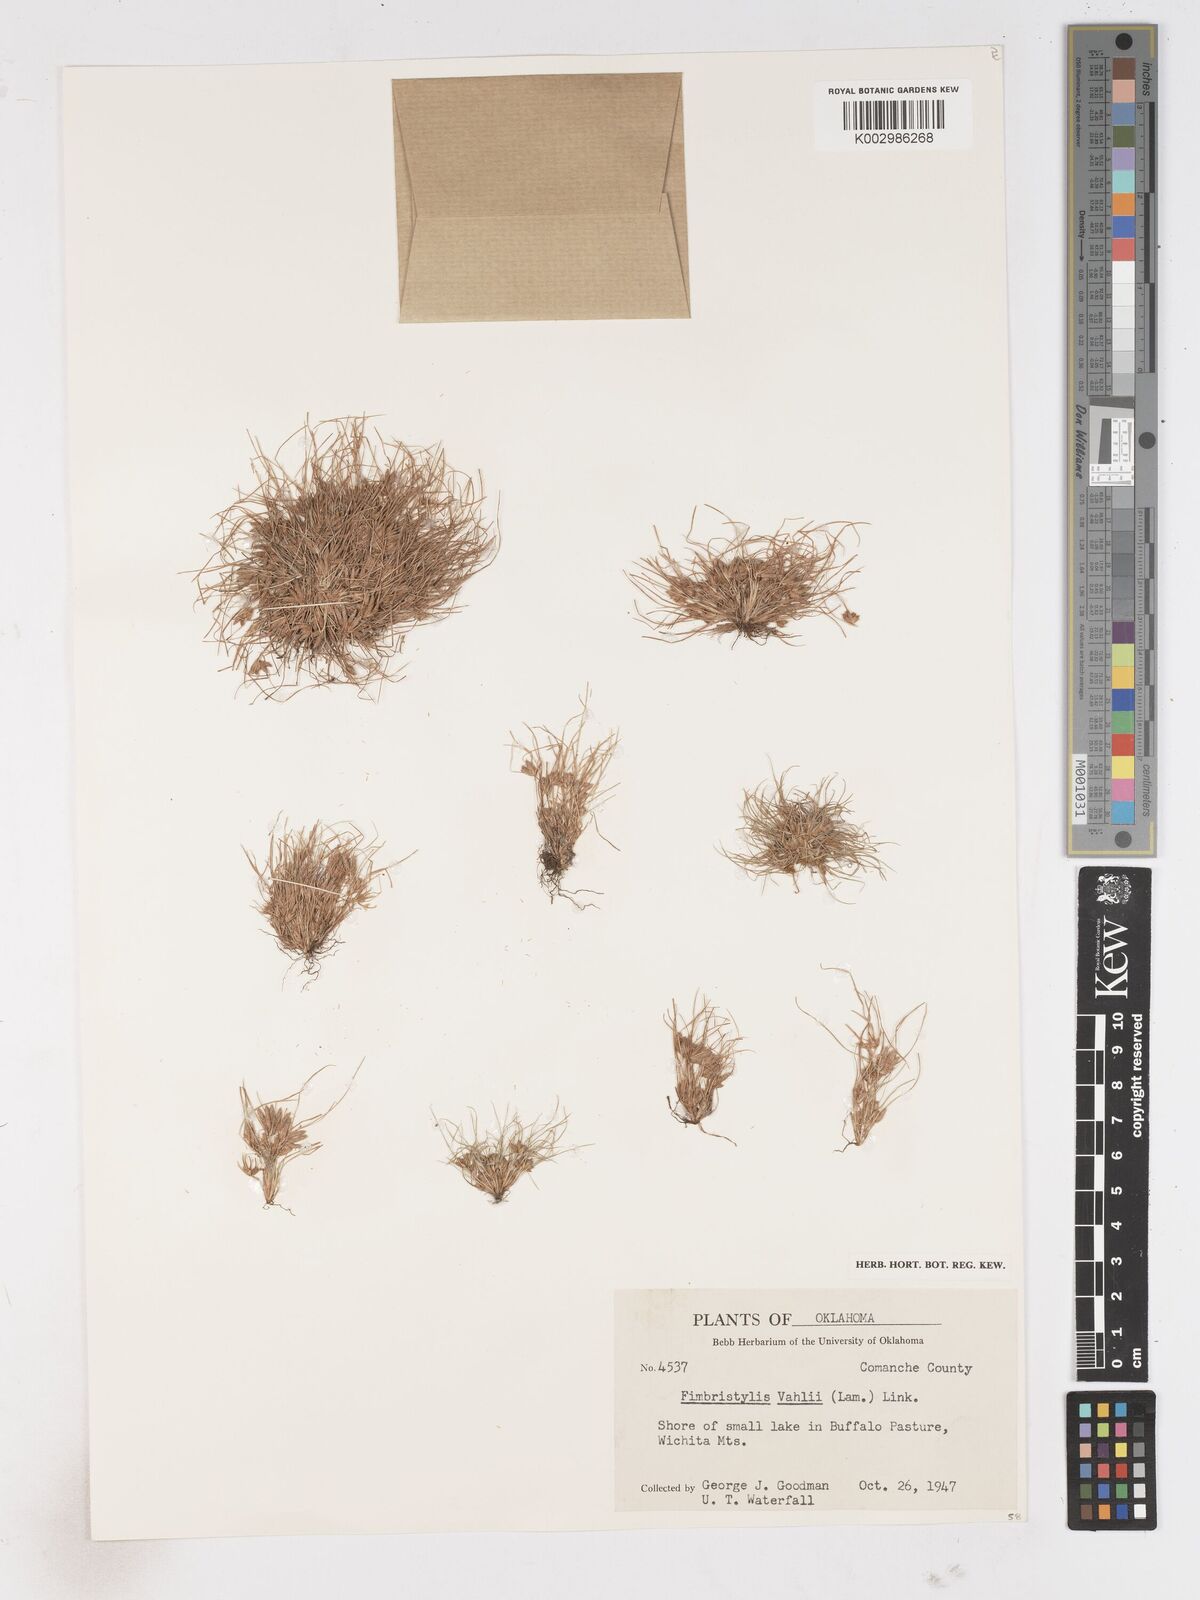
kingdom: Plantae
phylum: Tracheophyta
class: Liliopsida
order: Poales
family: Cyperaceae
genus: Fimbristylis
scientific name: Fimbristylis vahlii
